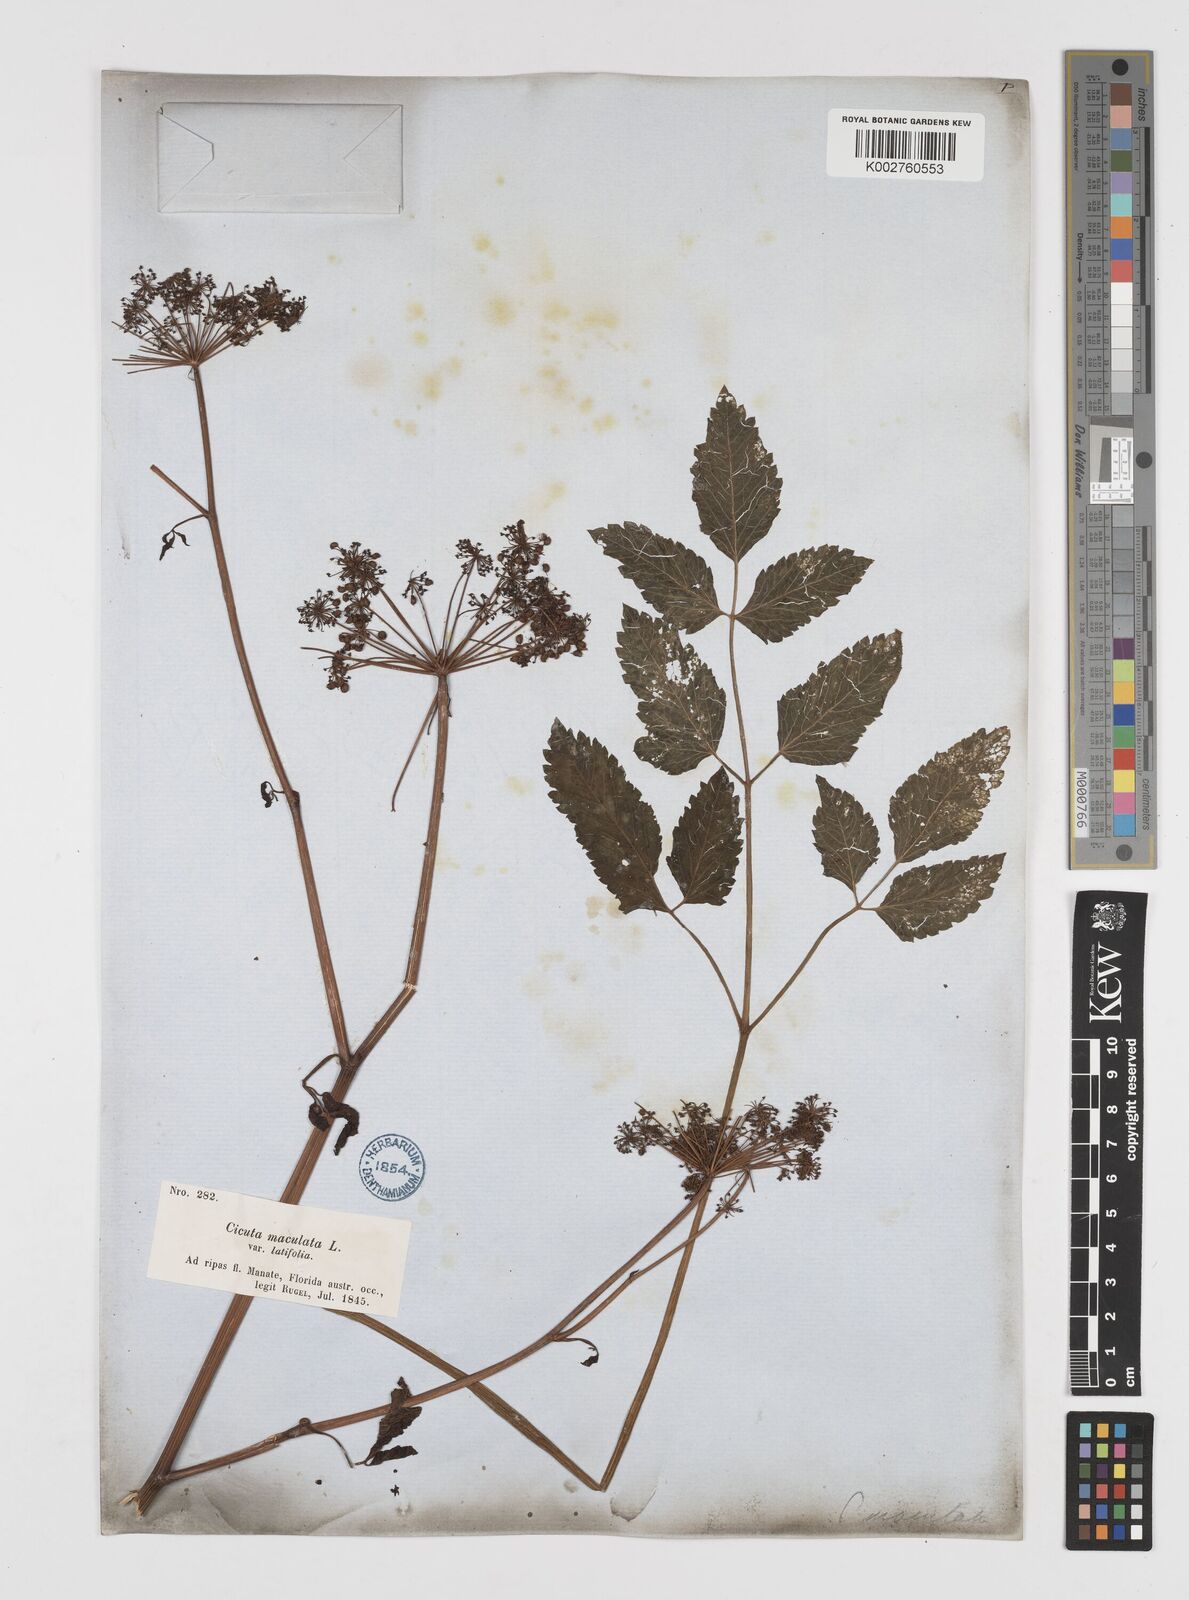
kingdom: Plantae
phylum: Tracheophyta
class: Magnoliopsida
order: Apiales
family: Apiaceae
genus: Cicuta
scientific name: Cicuta douglasii
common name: Western water-hemlock
